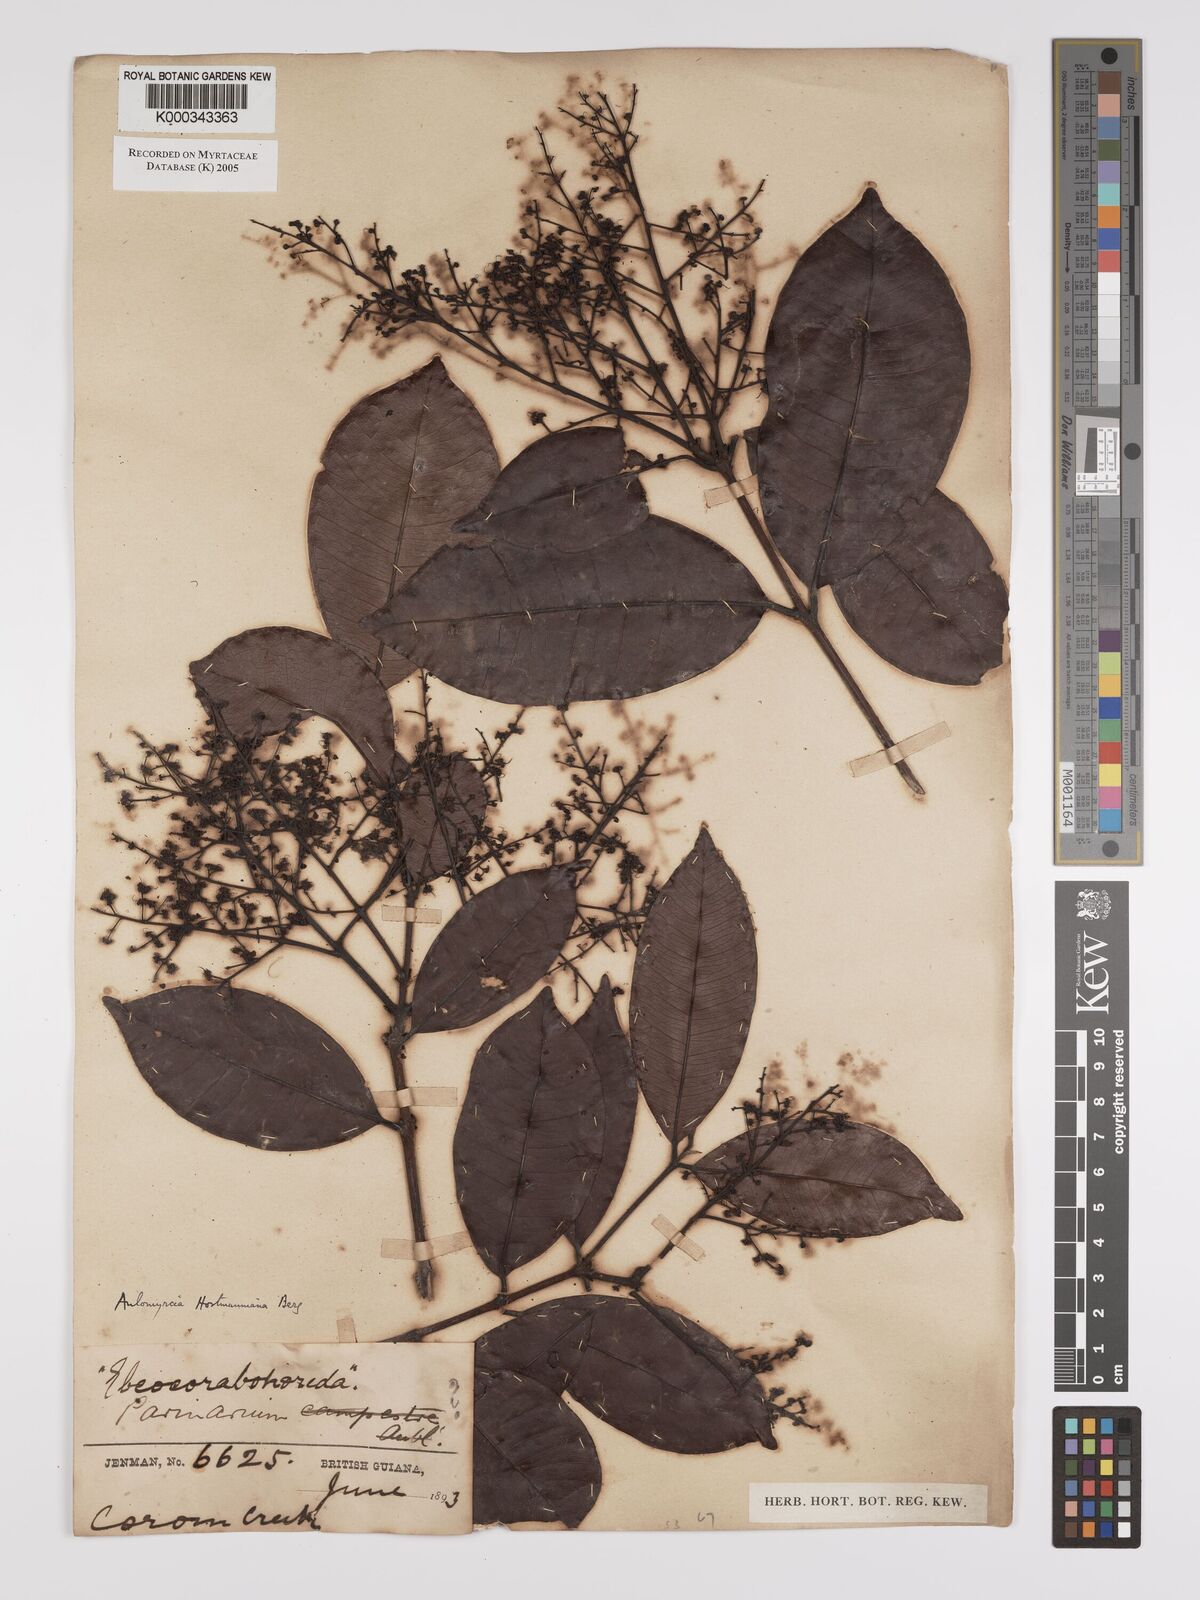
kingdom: Plantae
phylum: Tracheophyta
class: Magnoliopsida
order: Myrtales
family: Myrtaceae
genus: Myrcia
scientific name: Myrcia amazonica
